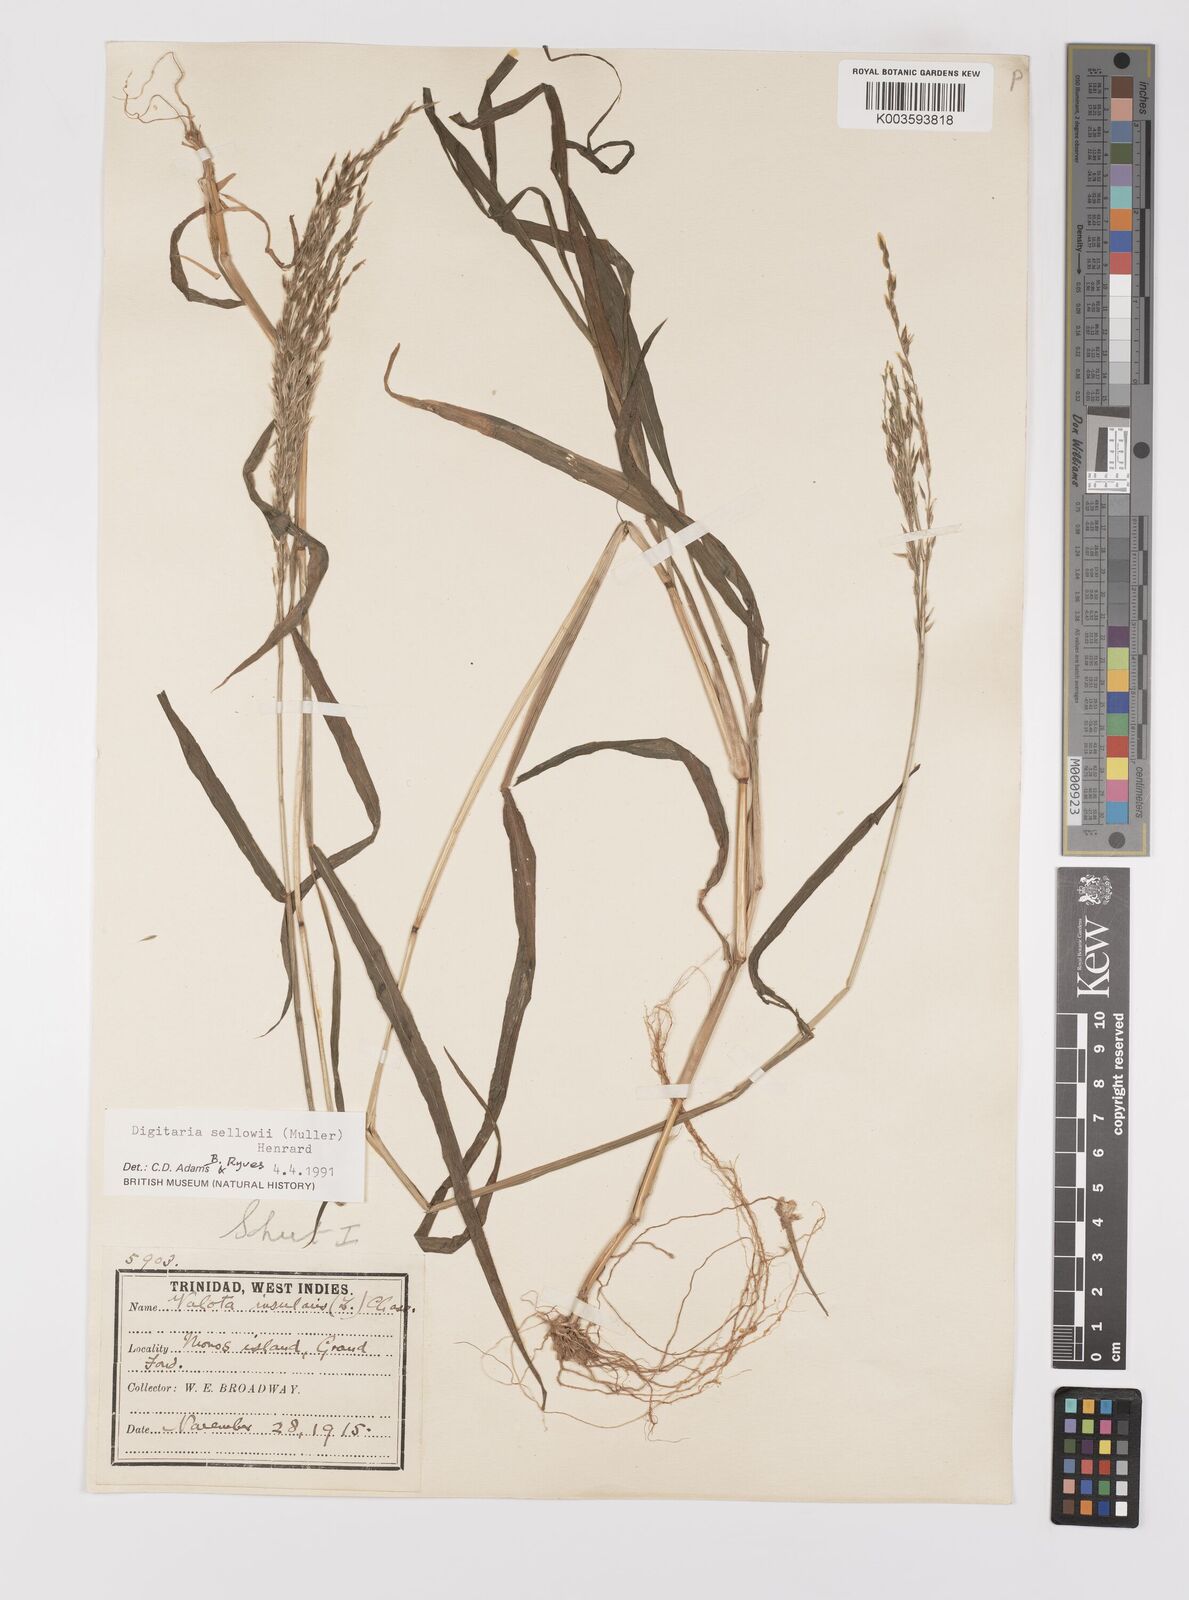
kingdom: Plantae
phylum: Tracheophyta
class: Liliopsida
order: Poales
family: Poaceae
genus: Digitaria
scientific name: Digitaria sellowii
